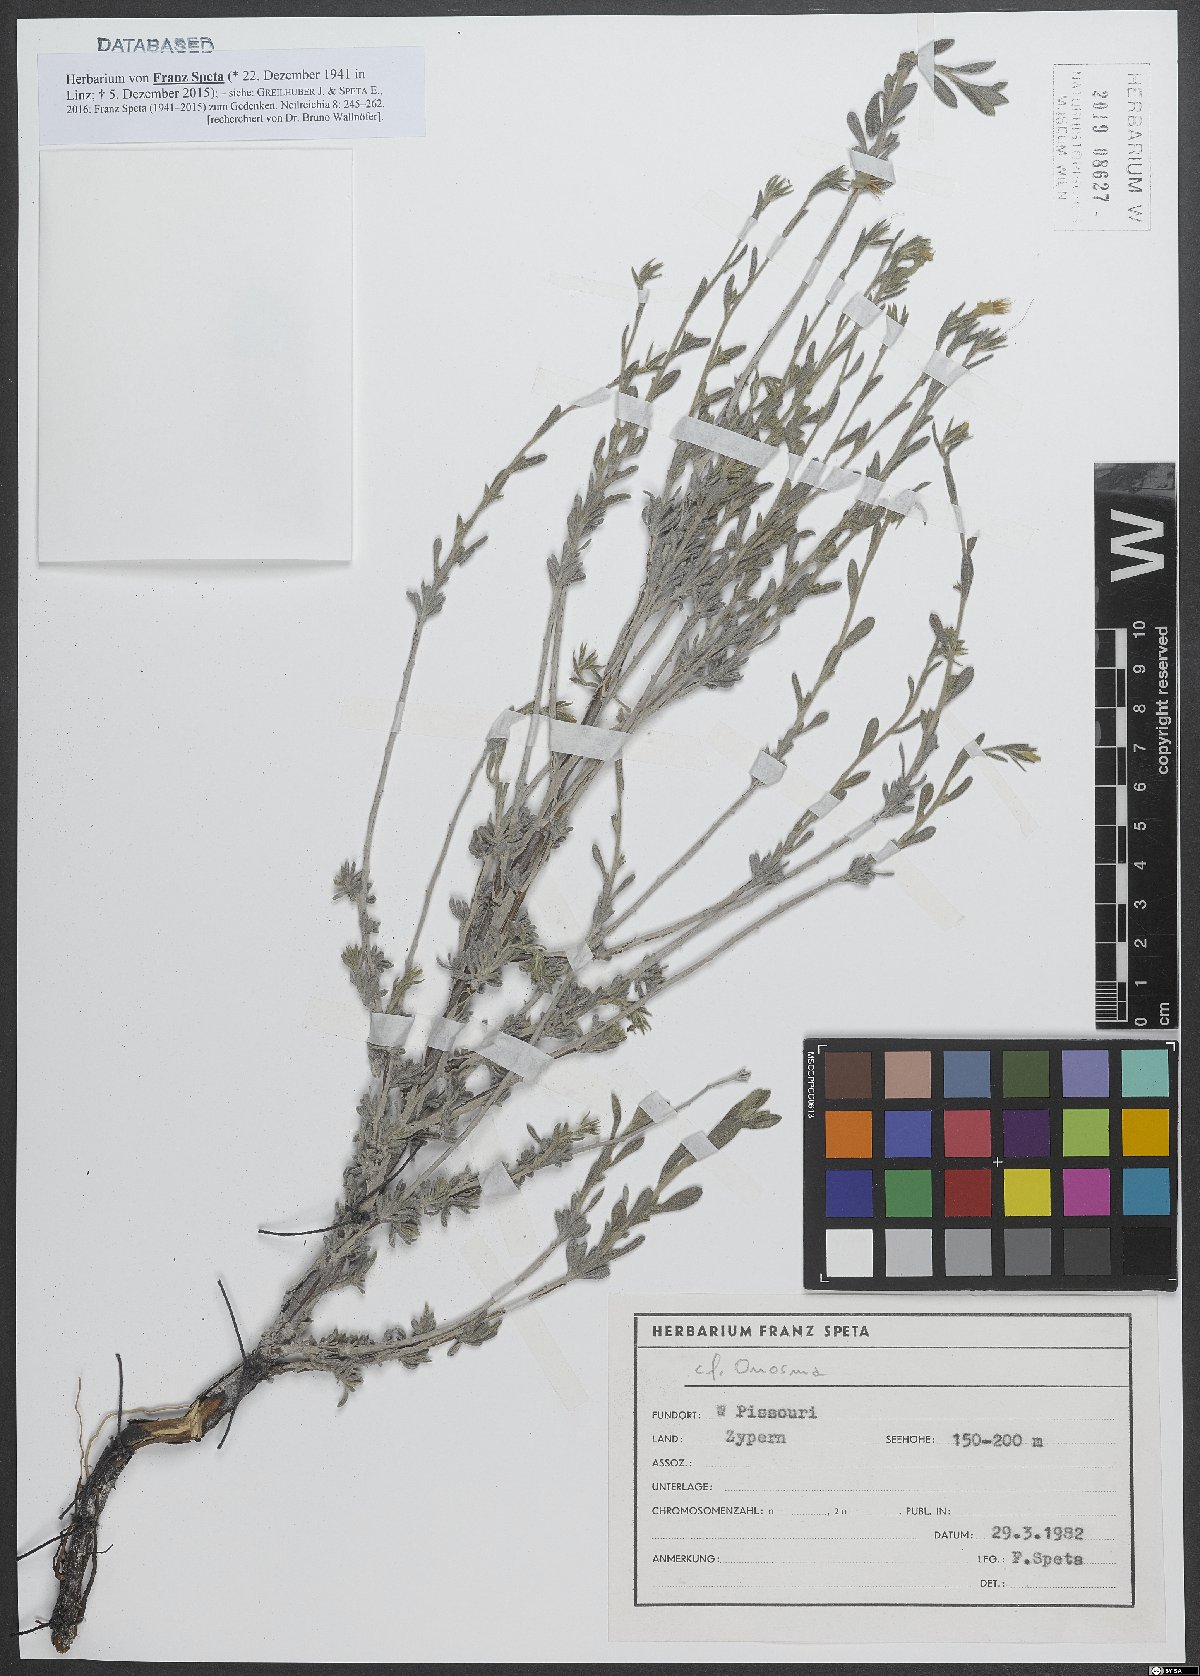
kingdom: Plantae
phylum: Tracheophyta
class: Magnoliopsida
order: Boraginales
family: Boraginaceae
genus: Onosma
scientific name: Onosma
